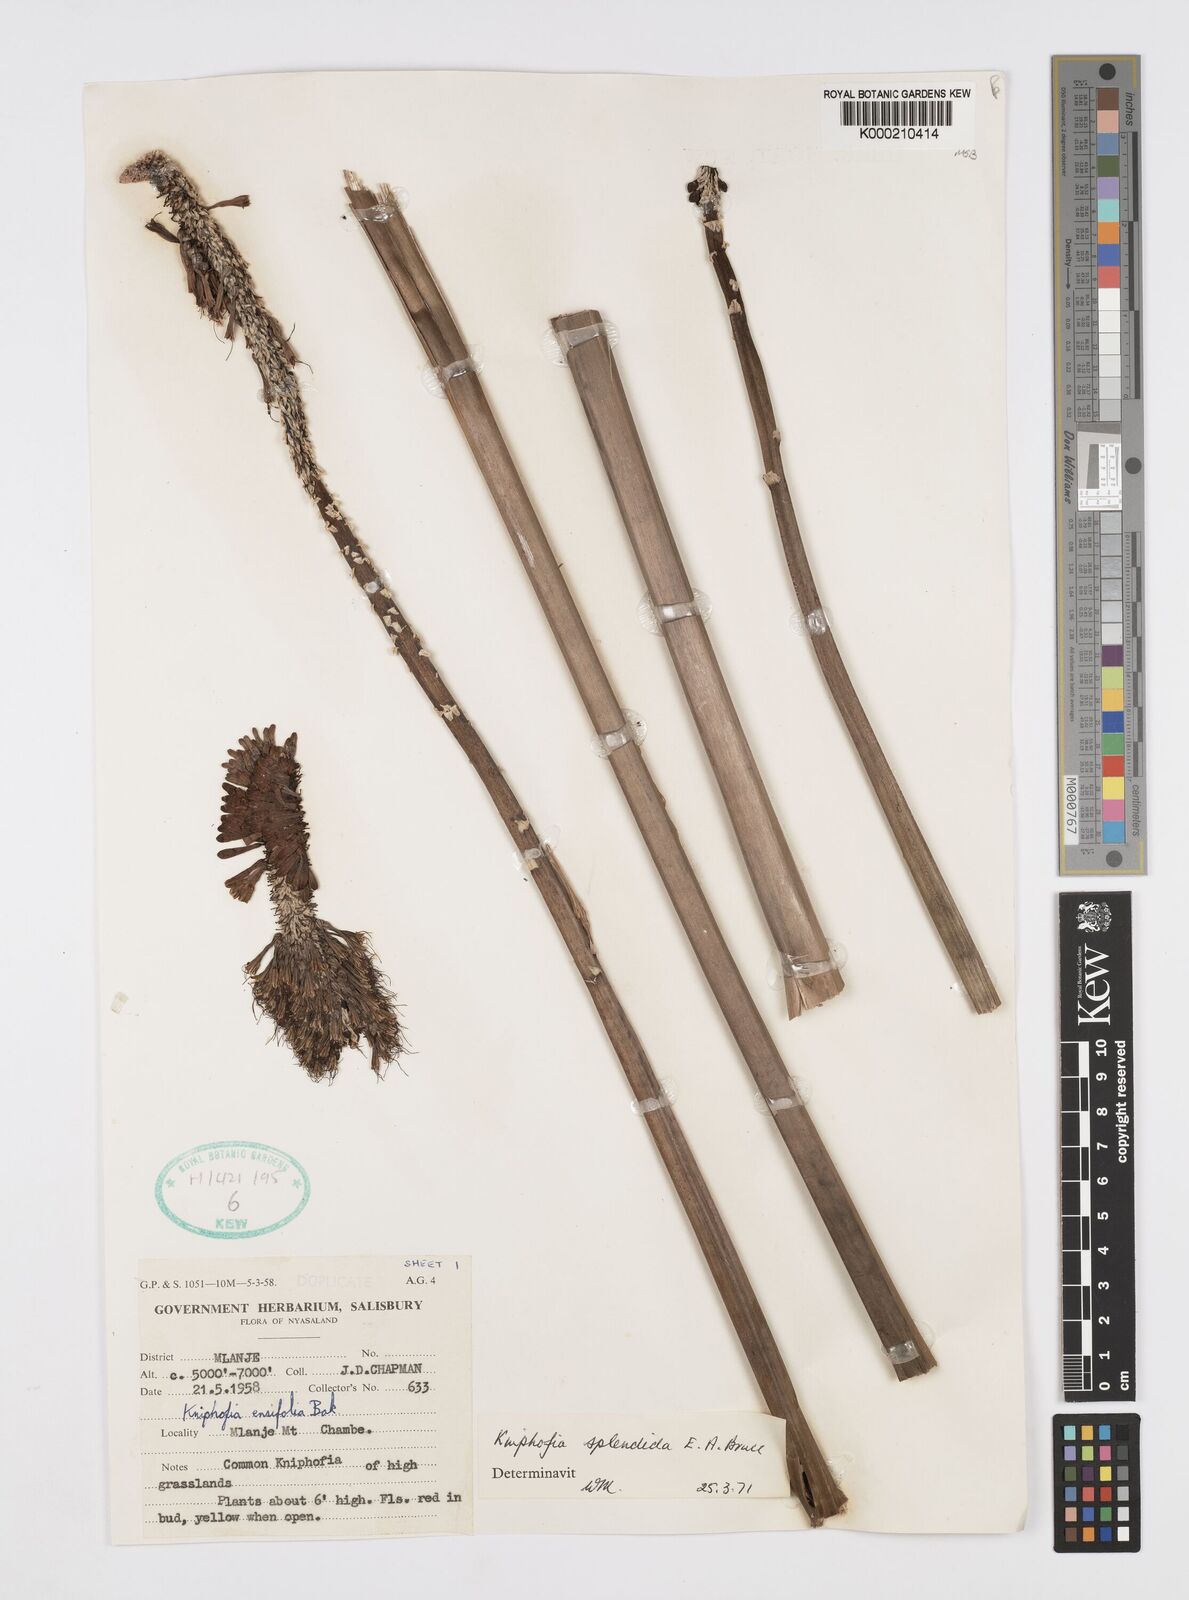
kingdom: Plantae
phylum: Tracheophyta
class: Liliopsida
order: Asparagales
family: Asphodelaceae
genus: Kniphofia
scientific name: Kniphofia splendida
